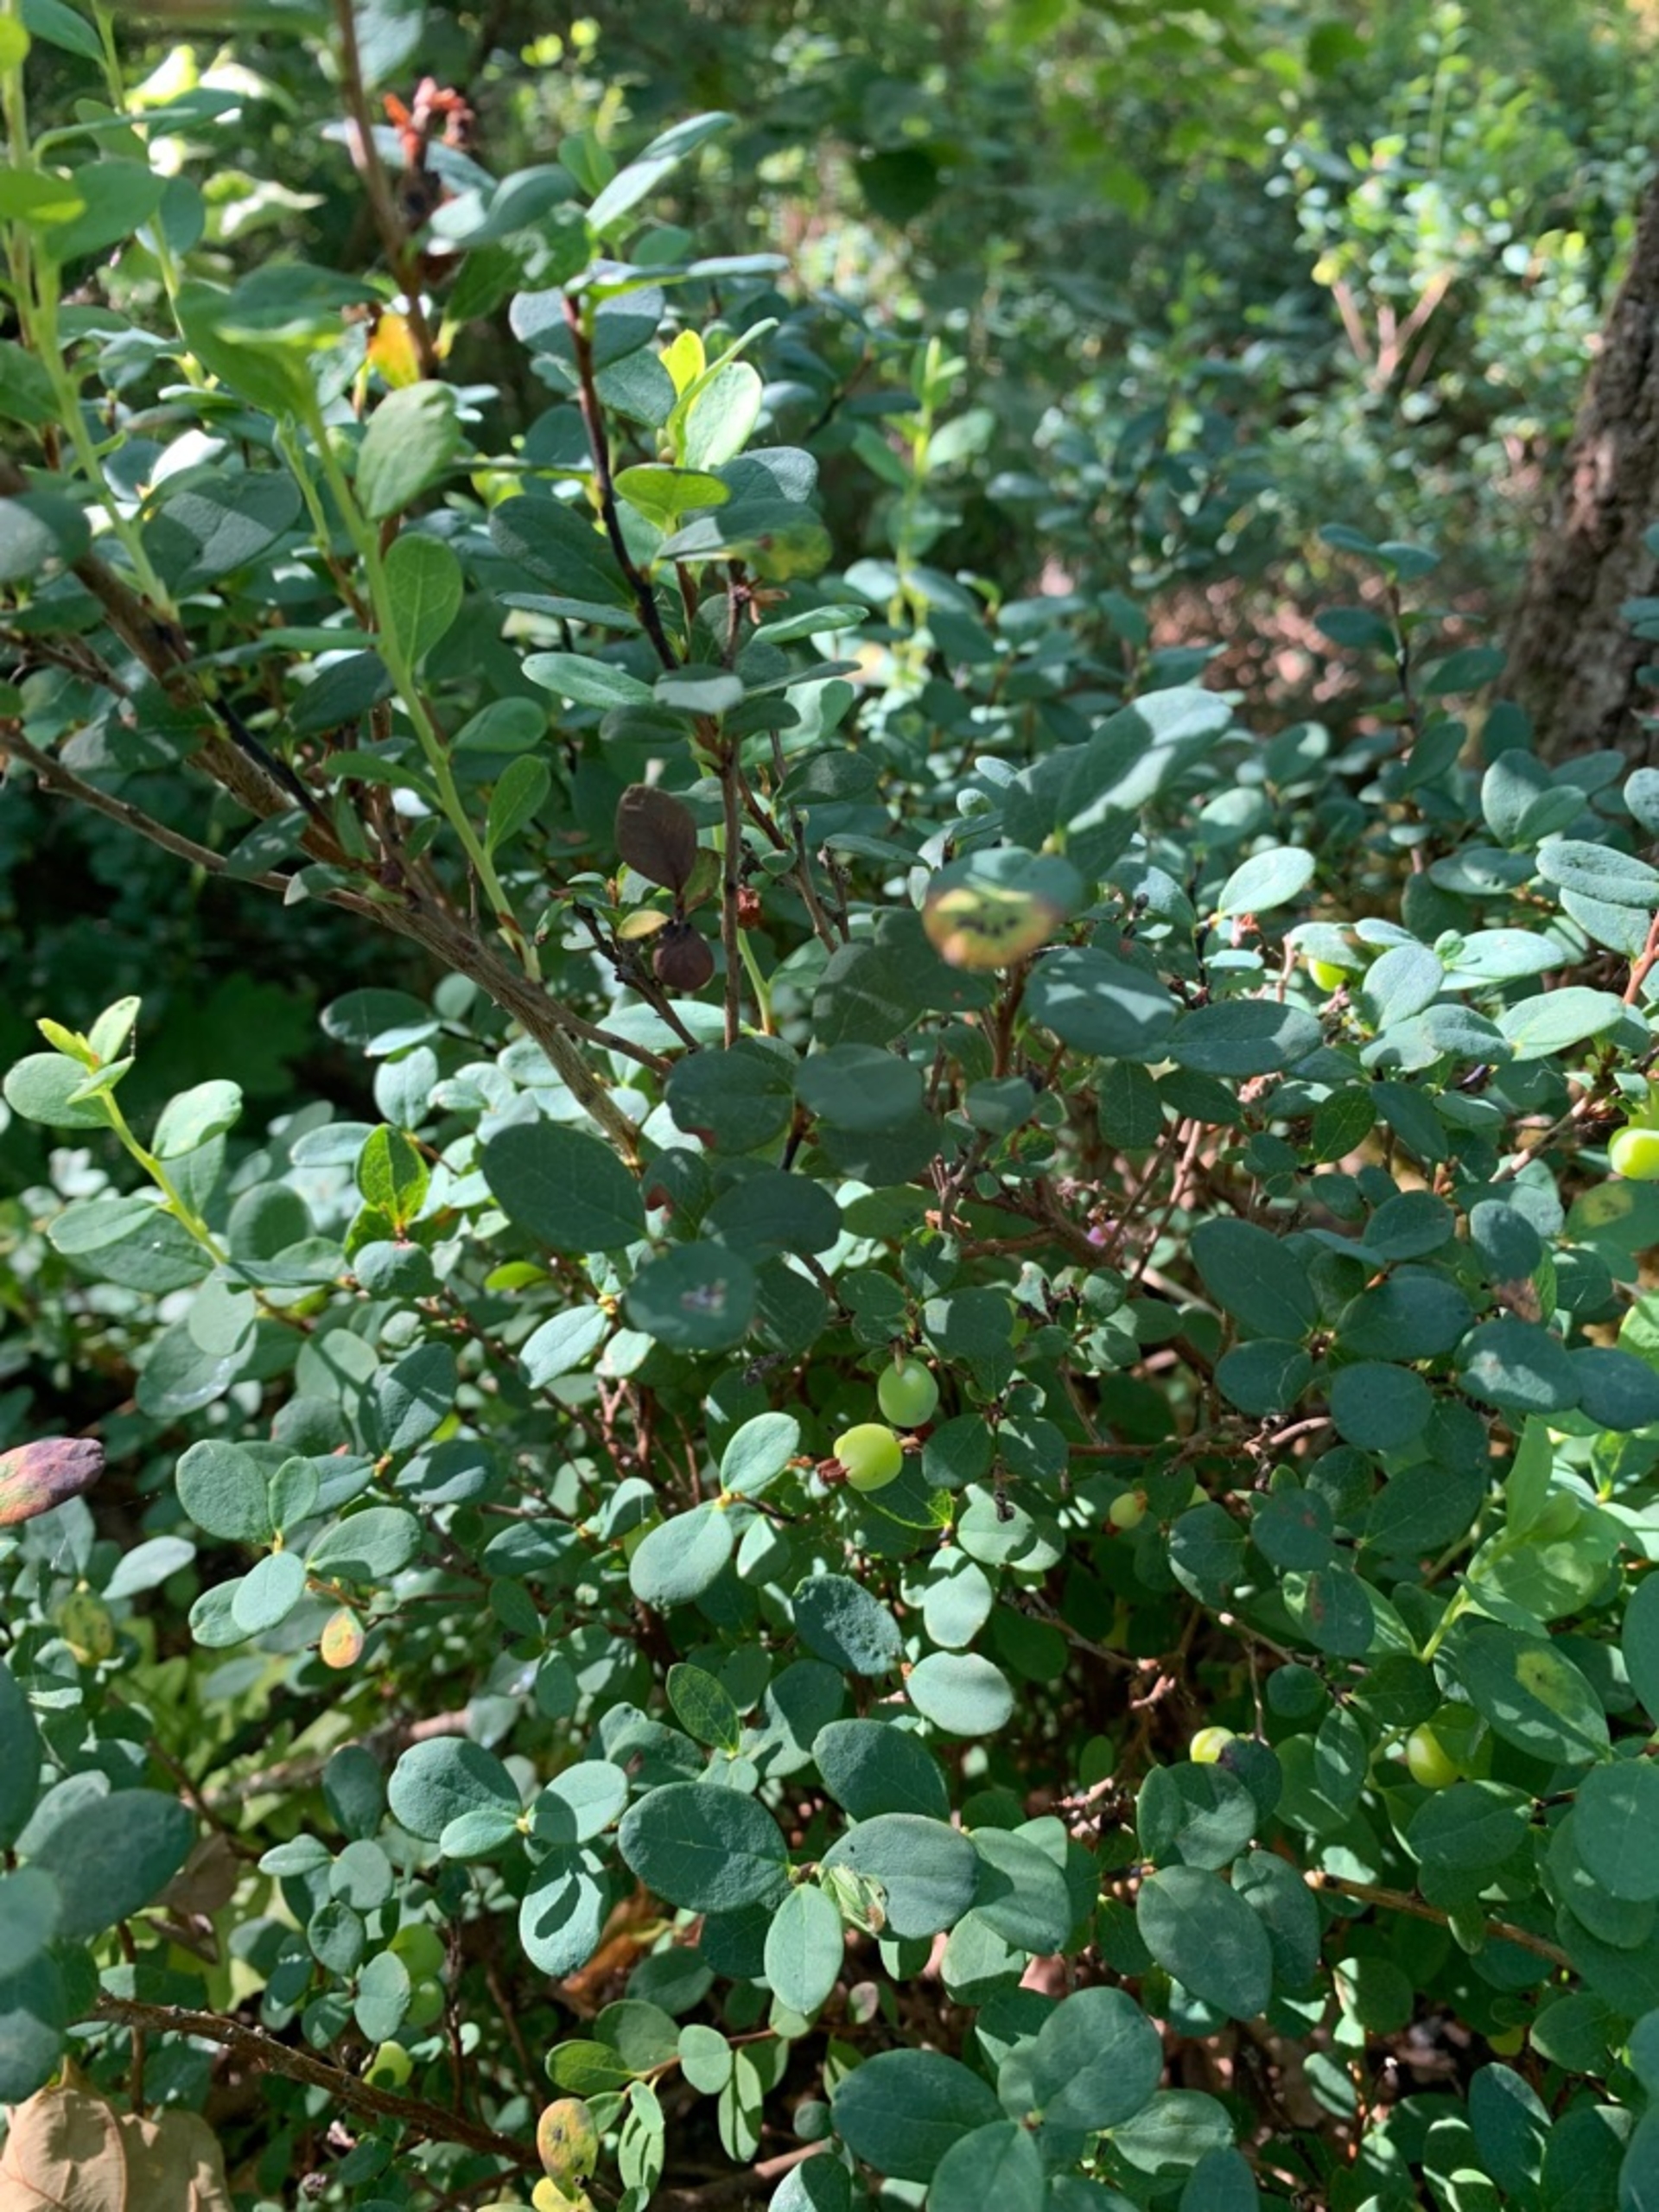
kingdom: Plantae
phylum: Tracheophyta
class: Magnoliopsida
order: Ericales
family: Ericaceae
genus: Vaccinium
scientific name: Vaccinium uliginosum
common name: Mose-bølle
